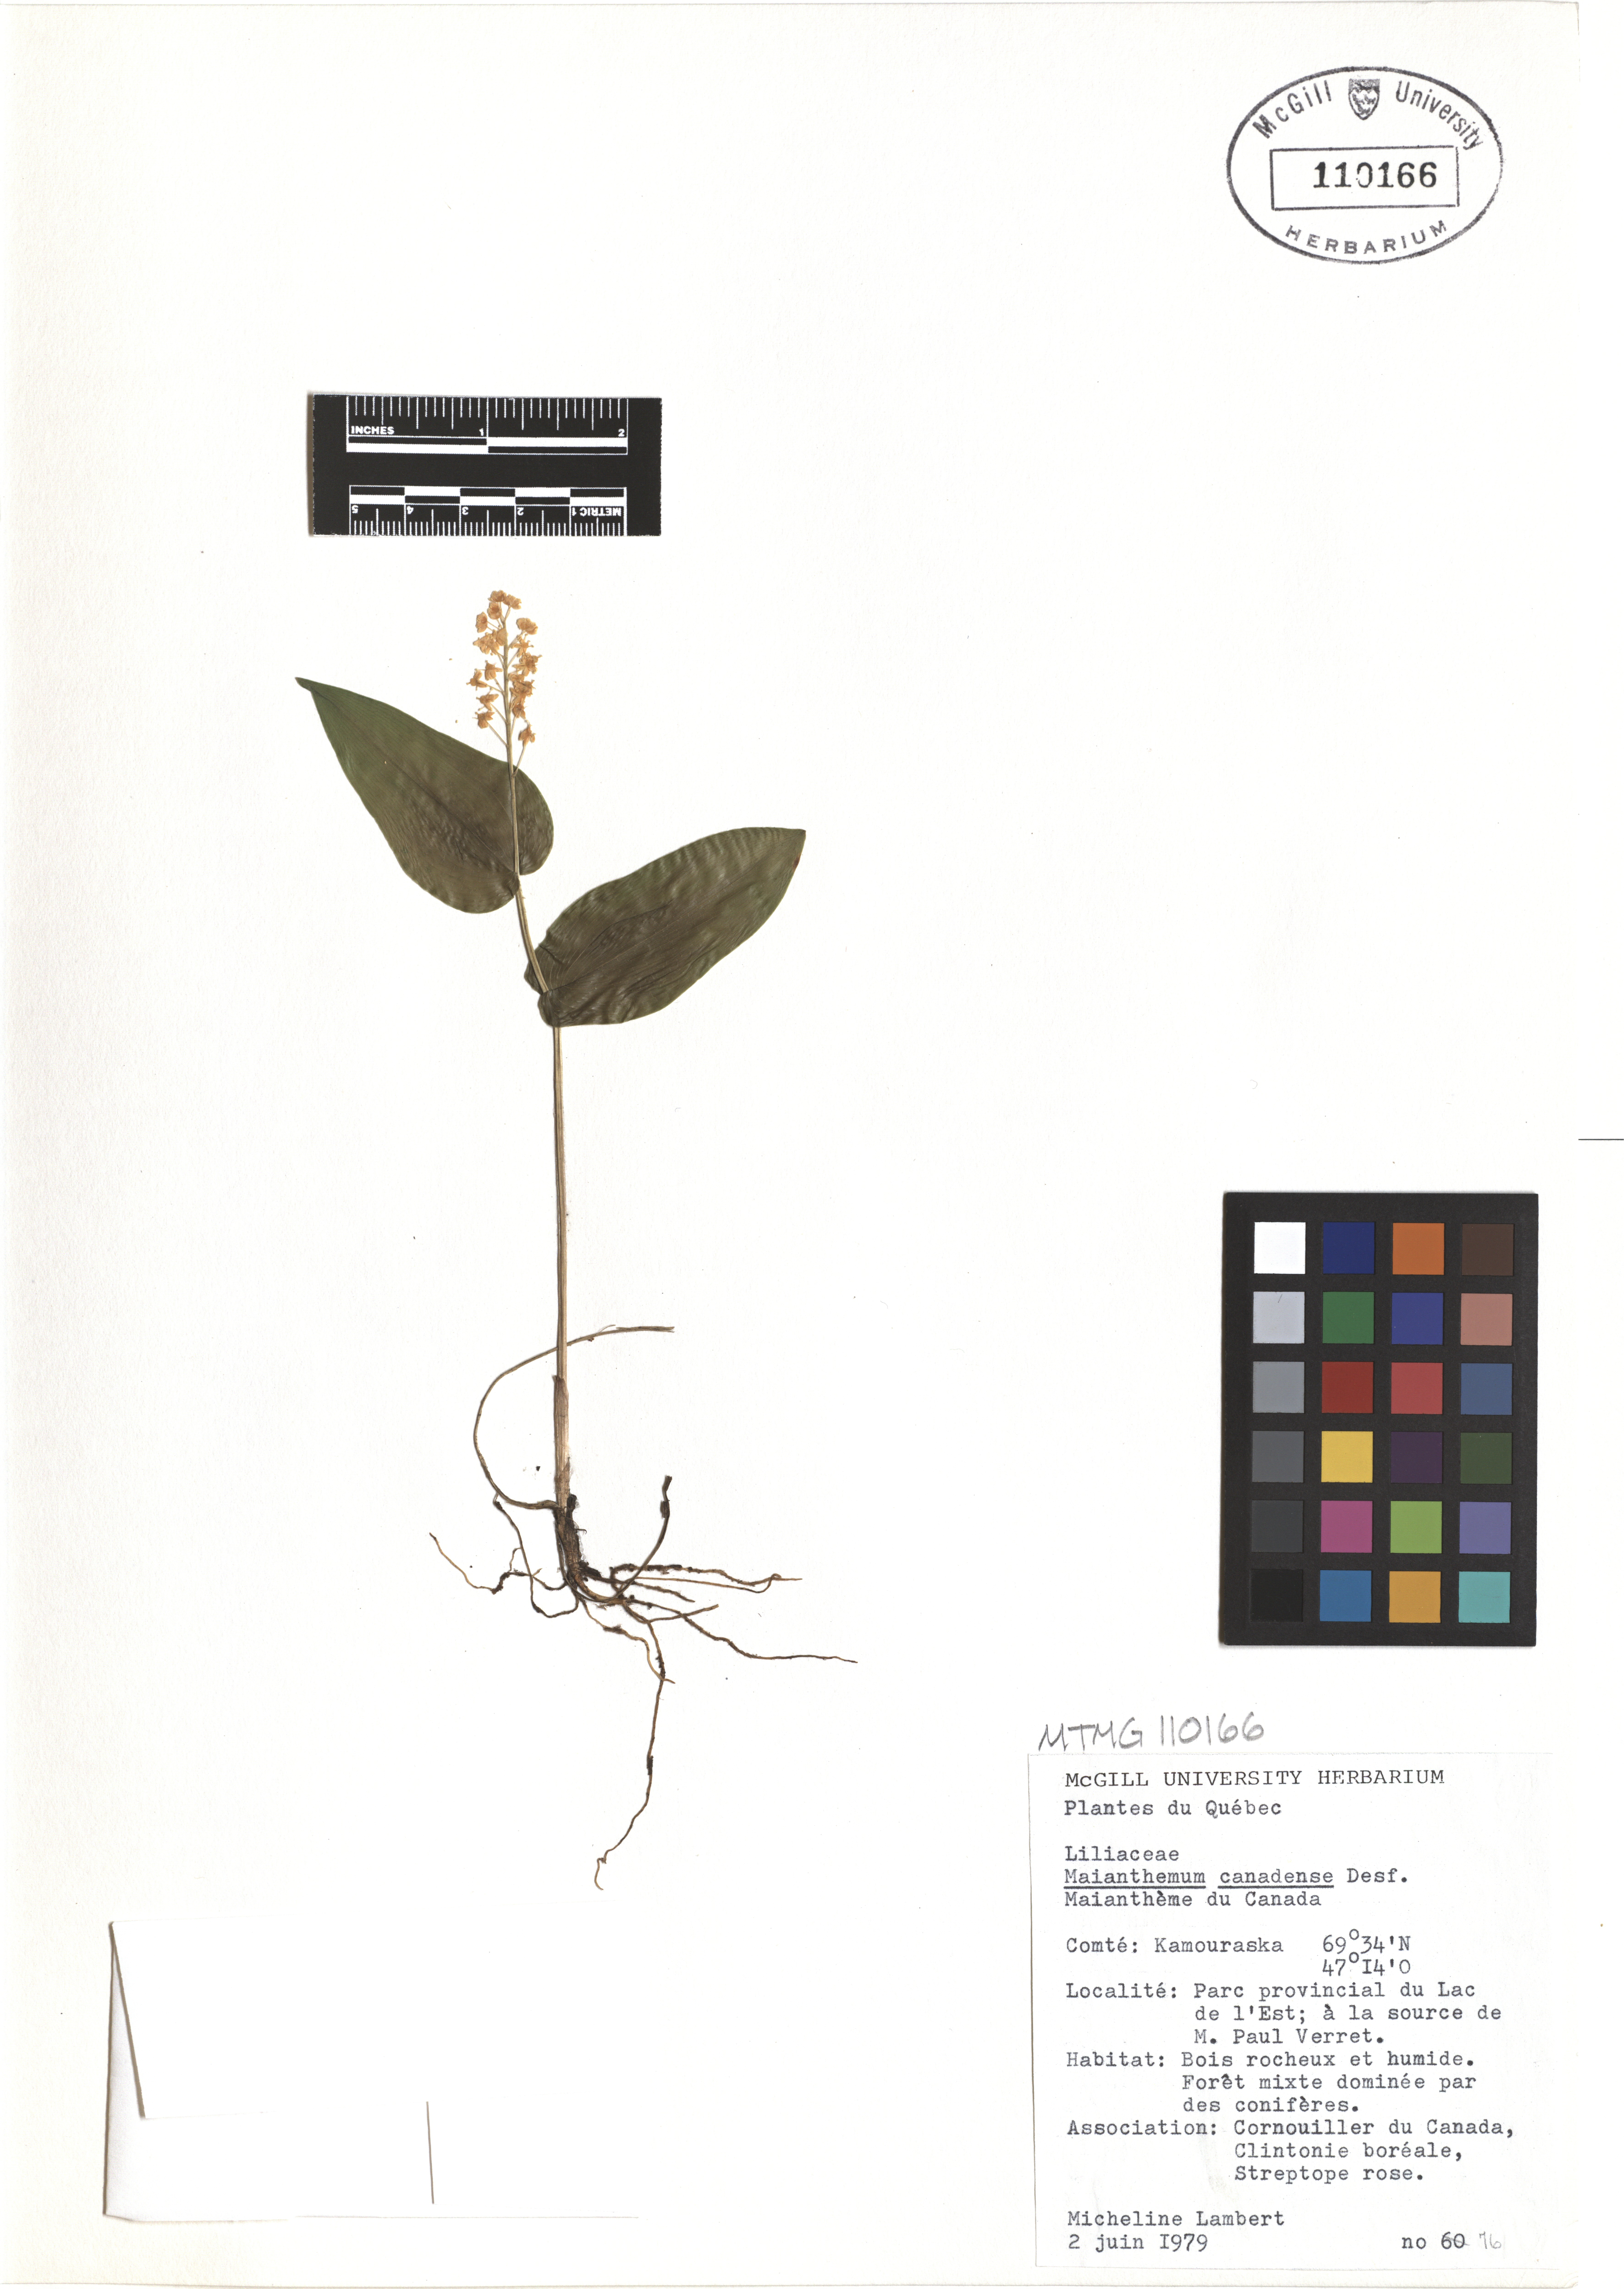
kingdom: Plantae
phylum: Tracheophyta
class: Liliopsida
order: Asparagales
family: Asparagaceae
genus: Maianthemum
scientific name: Maianthemum canadense
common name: False lily-of-the-valley
